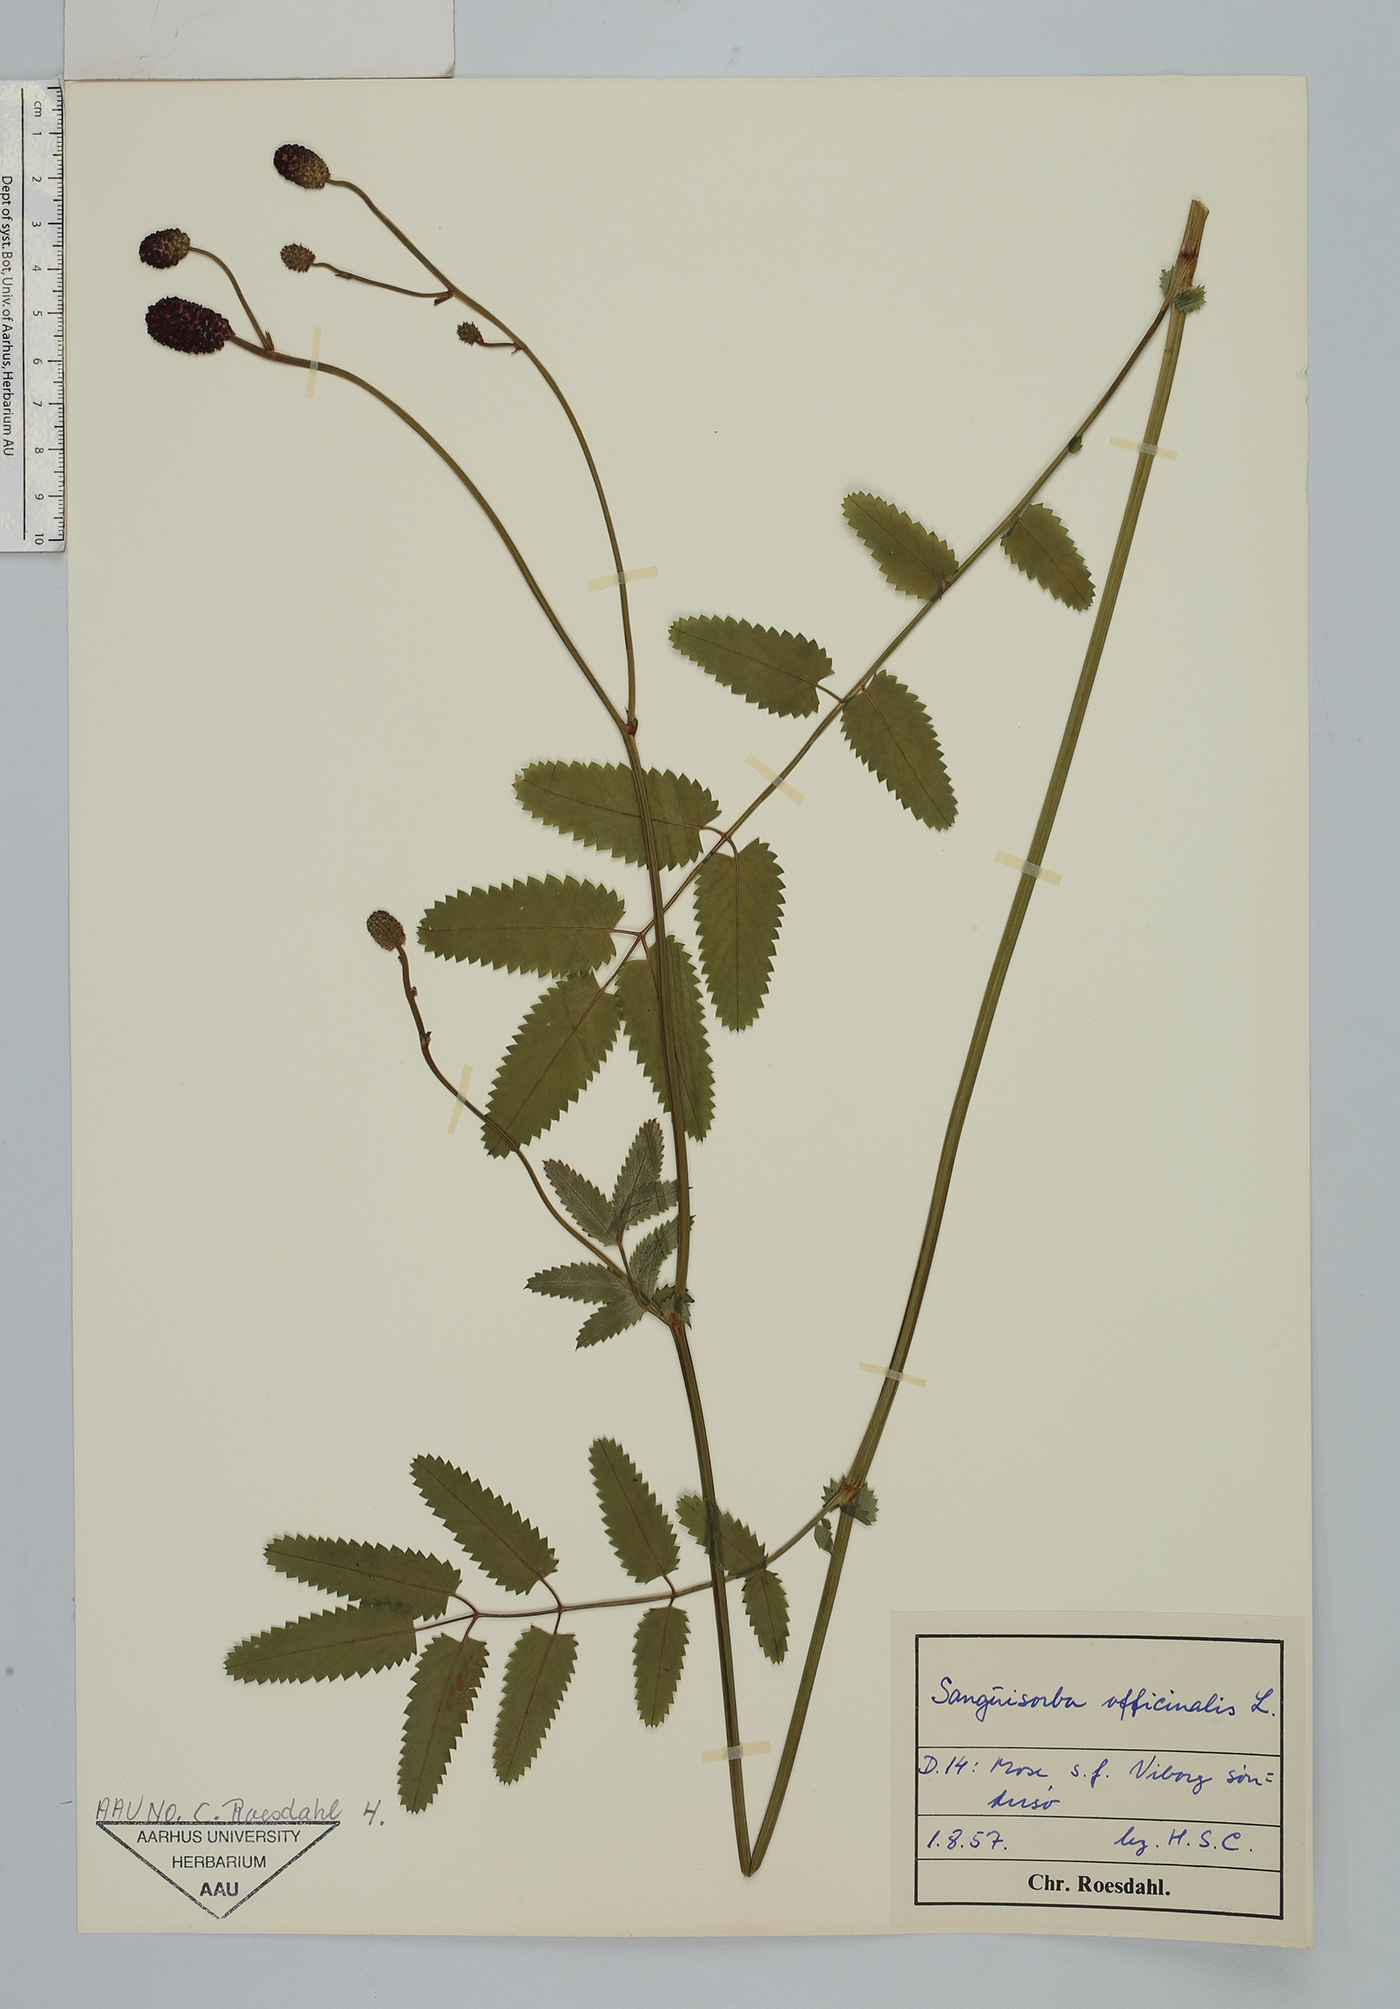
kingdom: Plantae
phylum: Tracheophyta
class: Magnoliopsida
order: Rosales
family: Rosaceae
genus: Sanguisorba
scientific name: Sanguisorba officinalis
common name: Great burnet
